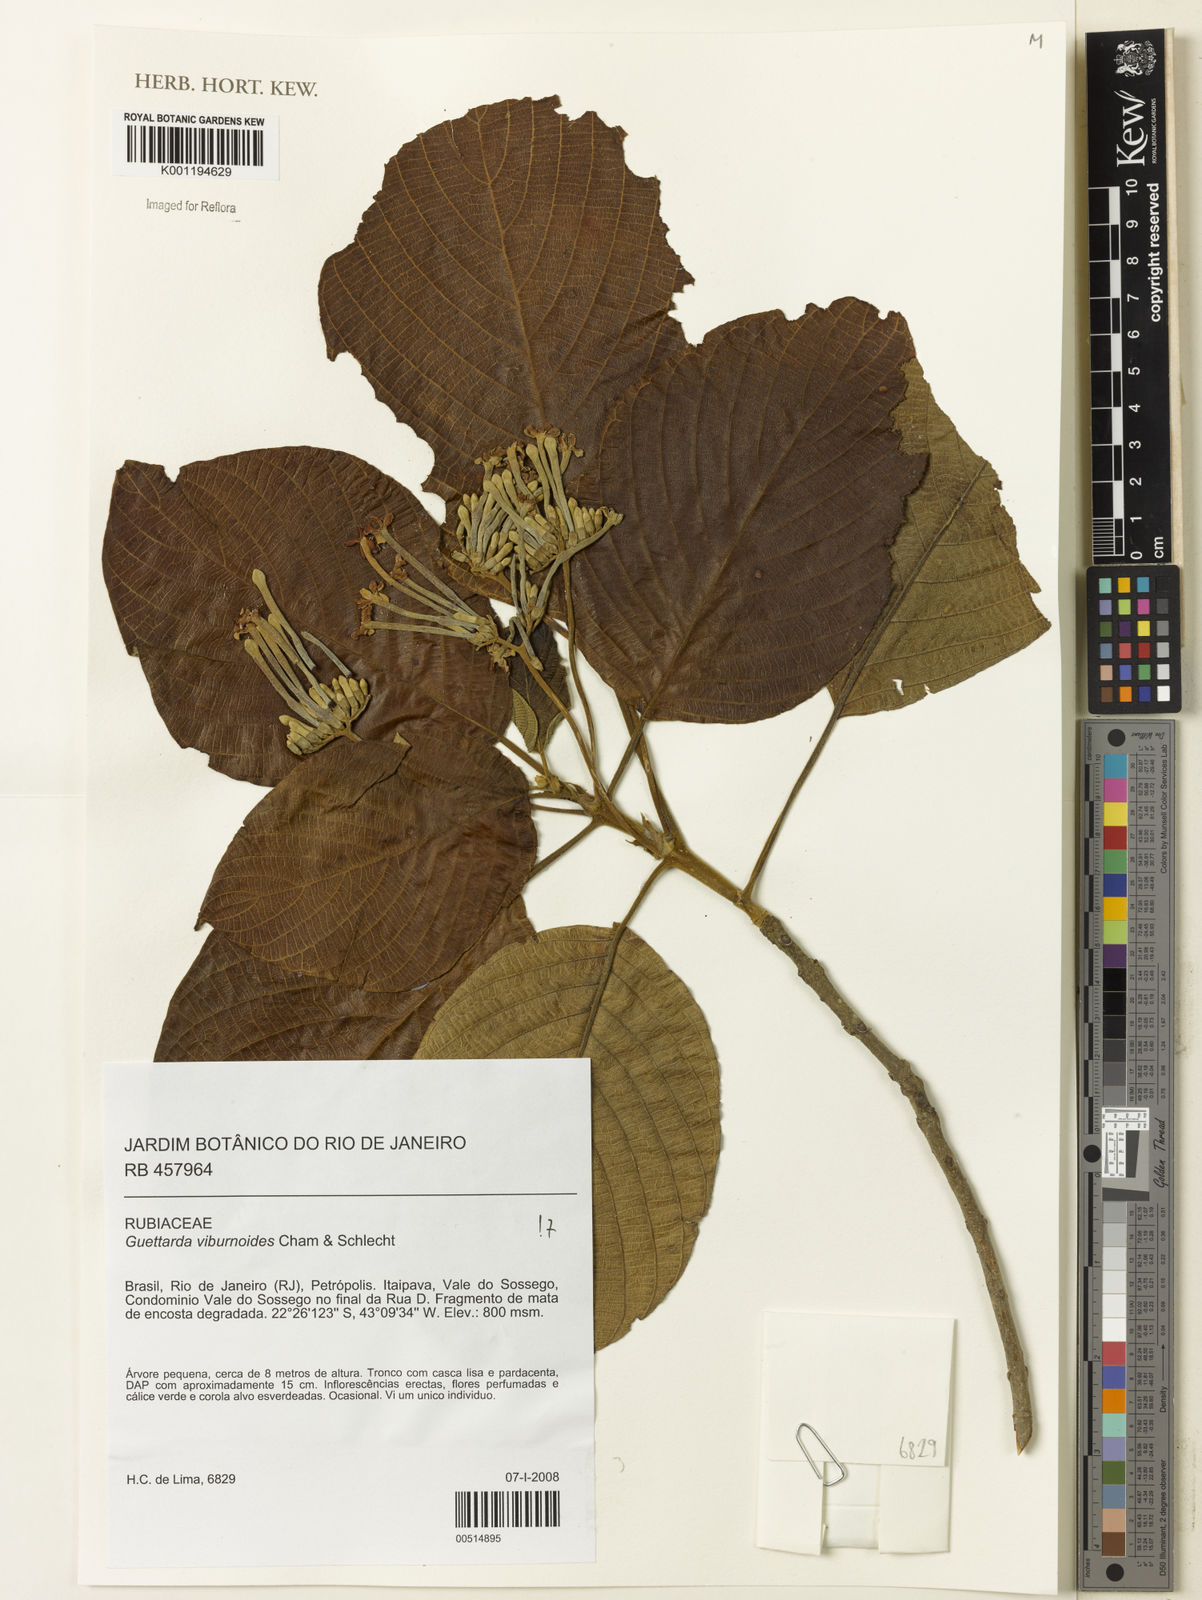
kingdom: Plantae
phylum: Tracheophyta
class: Magnoliopsida
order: Gentianales
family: Rubiaceae
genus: Guettarda
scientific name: Guettarda viburnoides
